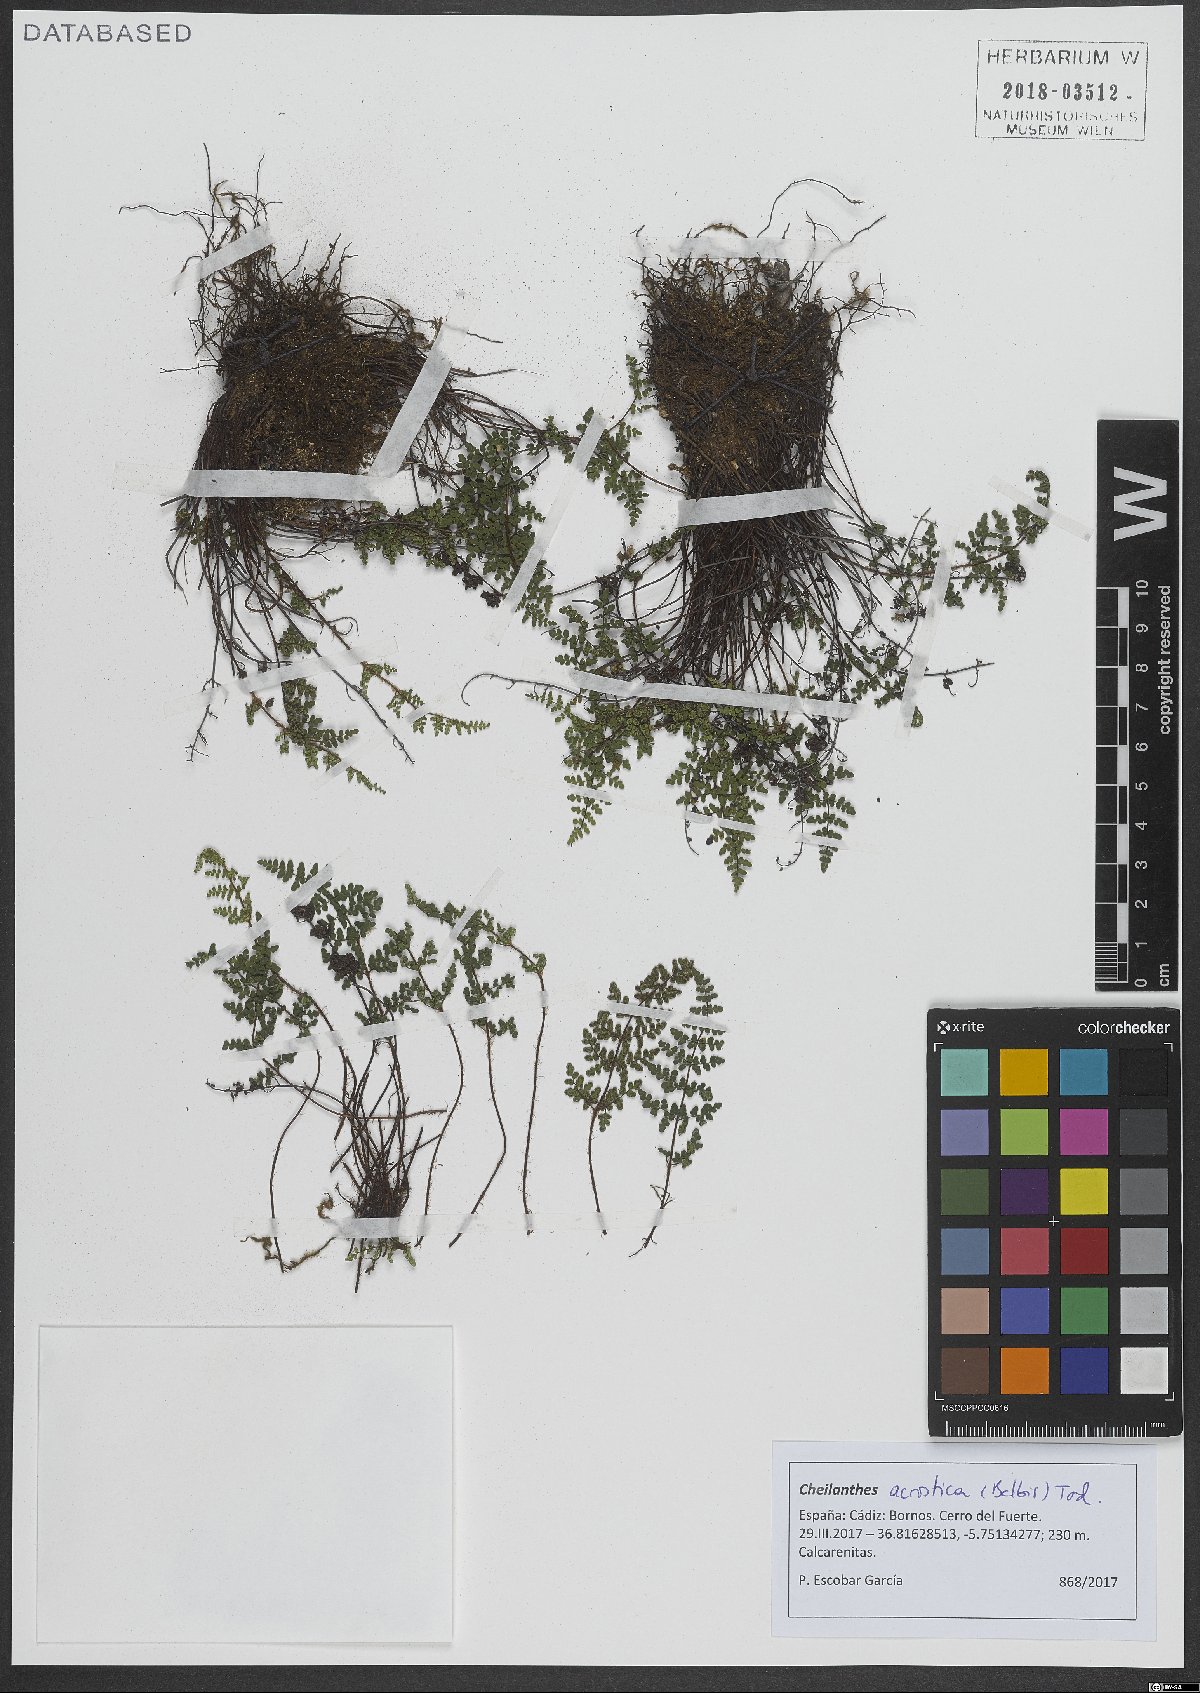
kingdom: Plantae
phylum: Tracheophyta
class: Polypodiopsida
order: Polypodiales
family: Pteridaceae
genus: Oeosporangium
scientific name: Oeosporangium pteridioides
